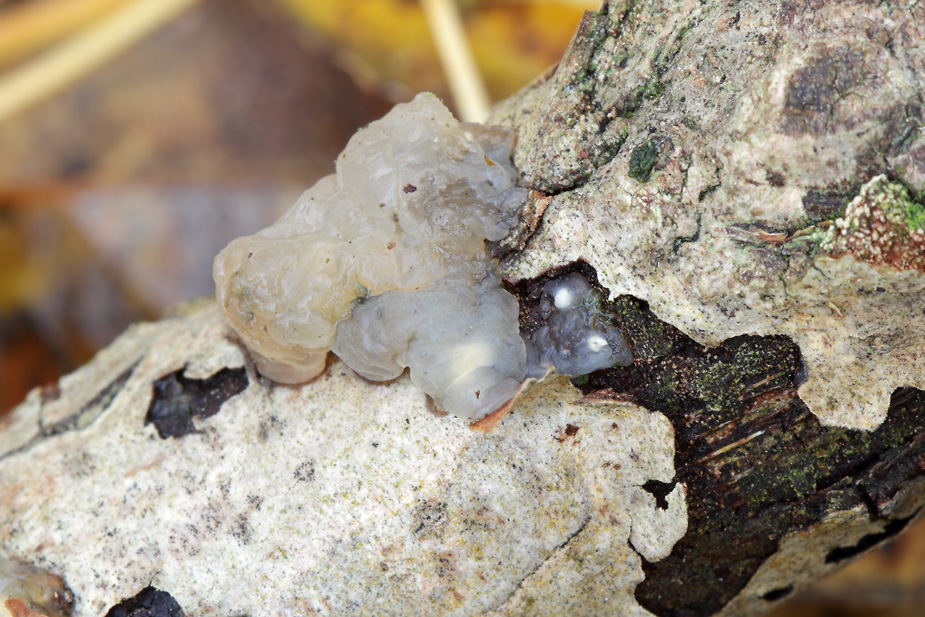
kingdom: Fungi
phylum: Basidiomycota
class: Agaricomycetes
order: Auriculariales
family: Hyaloriaceae
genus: Myxarium
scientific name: Myxarium nucleatum
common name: klar bævretop
